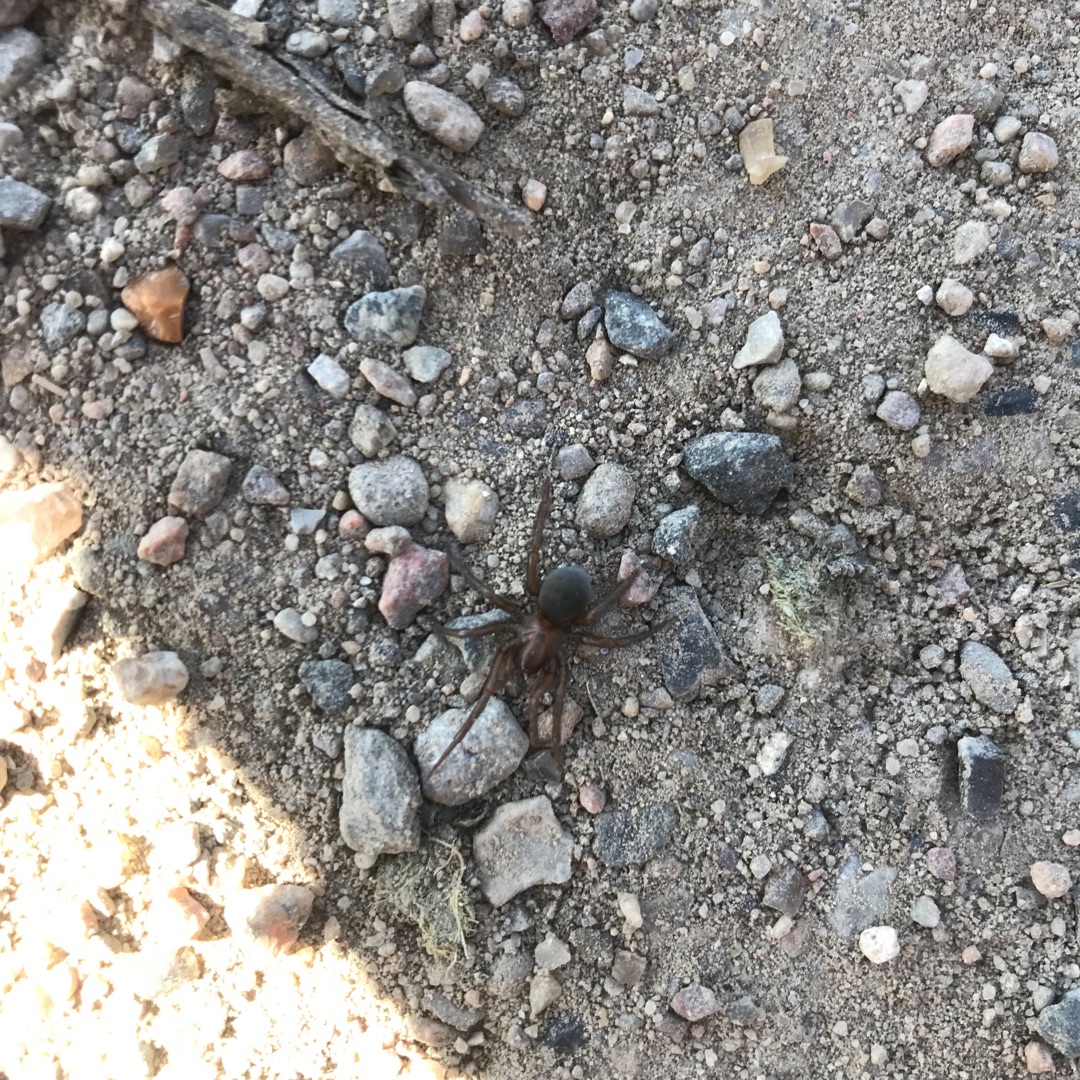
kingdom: Animalia
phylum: Arthropoda
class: Arachnida
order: Araneae
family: Dictynidae
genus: Argyroneta
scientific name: Argyroneta aquatica
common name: Vandedderkop
